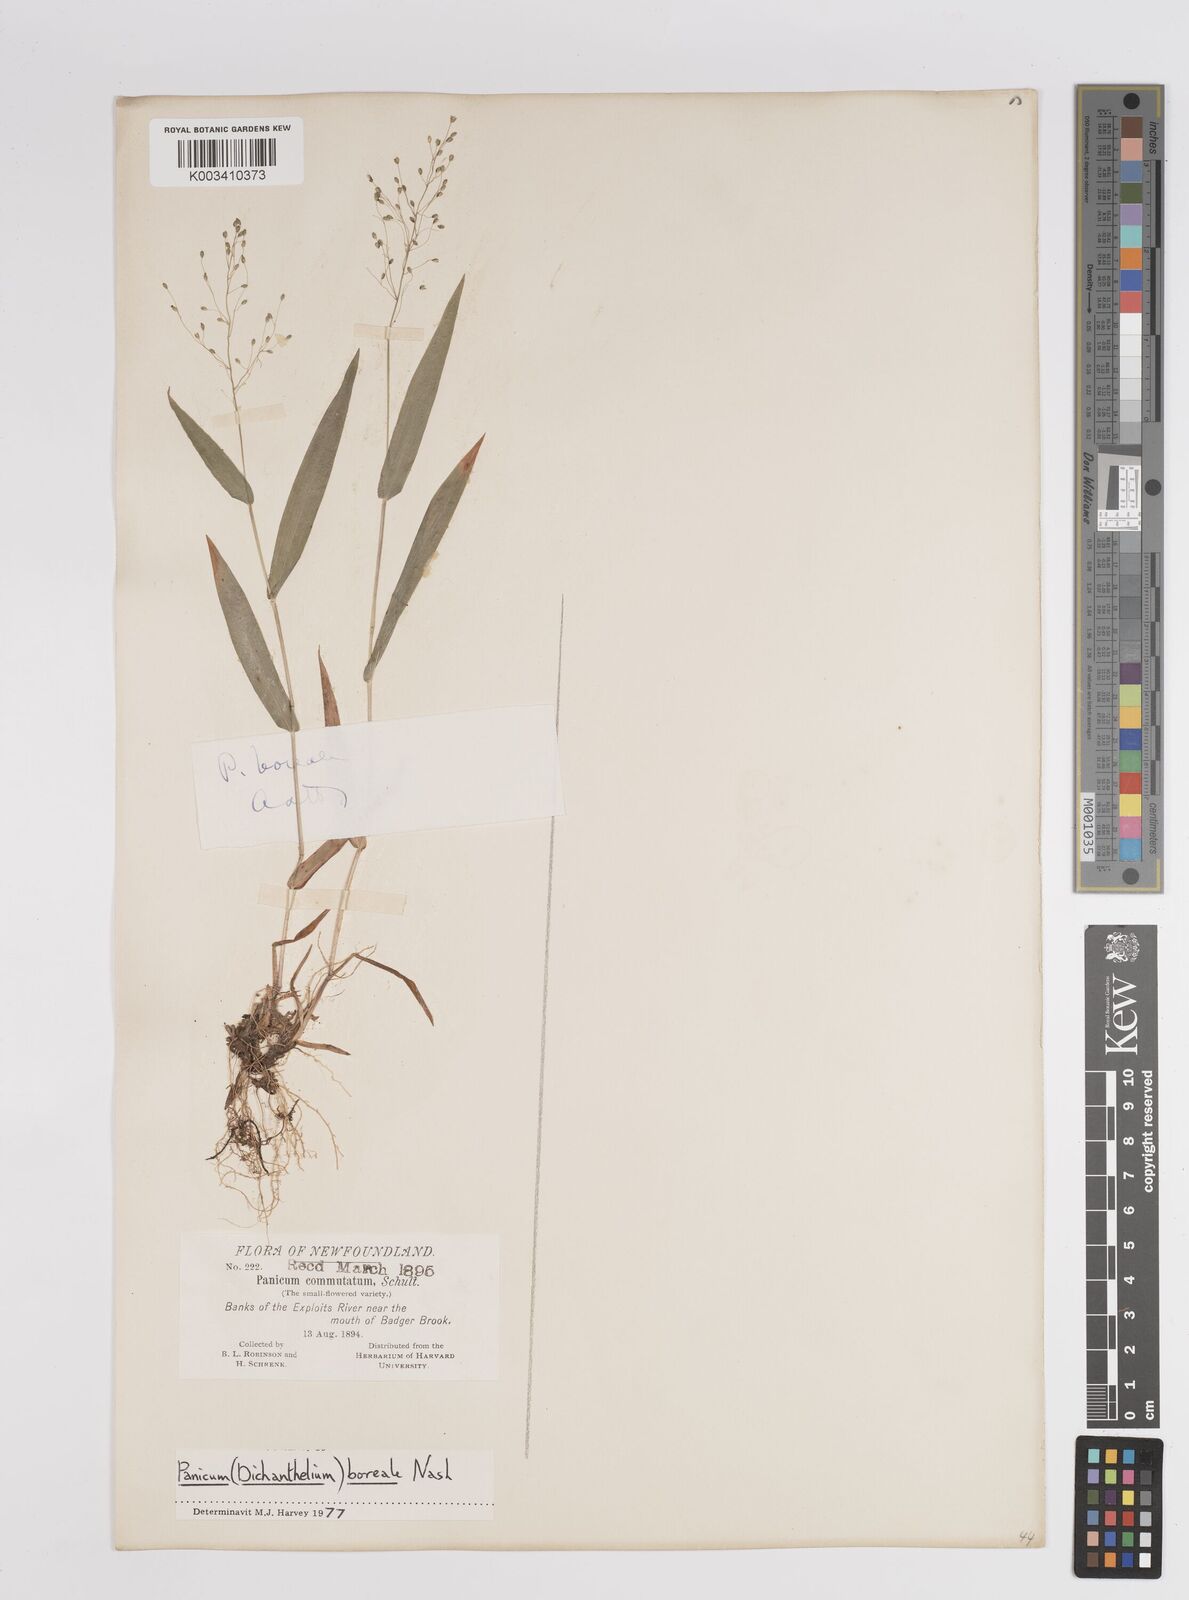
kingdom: Plantae
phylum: Tracheophyta
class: Liliopsida
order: Poales
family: Poaceae
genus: Dichanthelium
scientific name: Dichanthelium boreale
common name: Northern panicgrass
